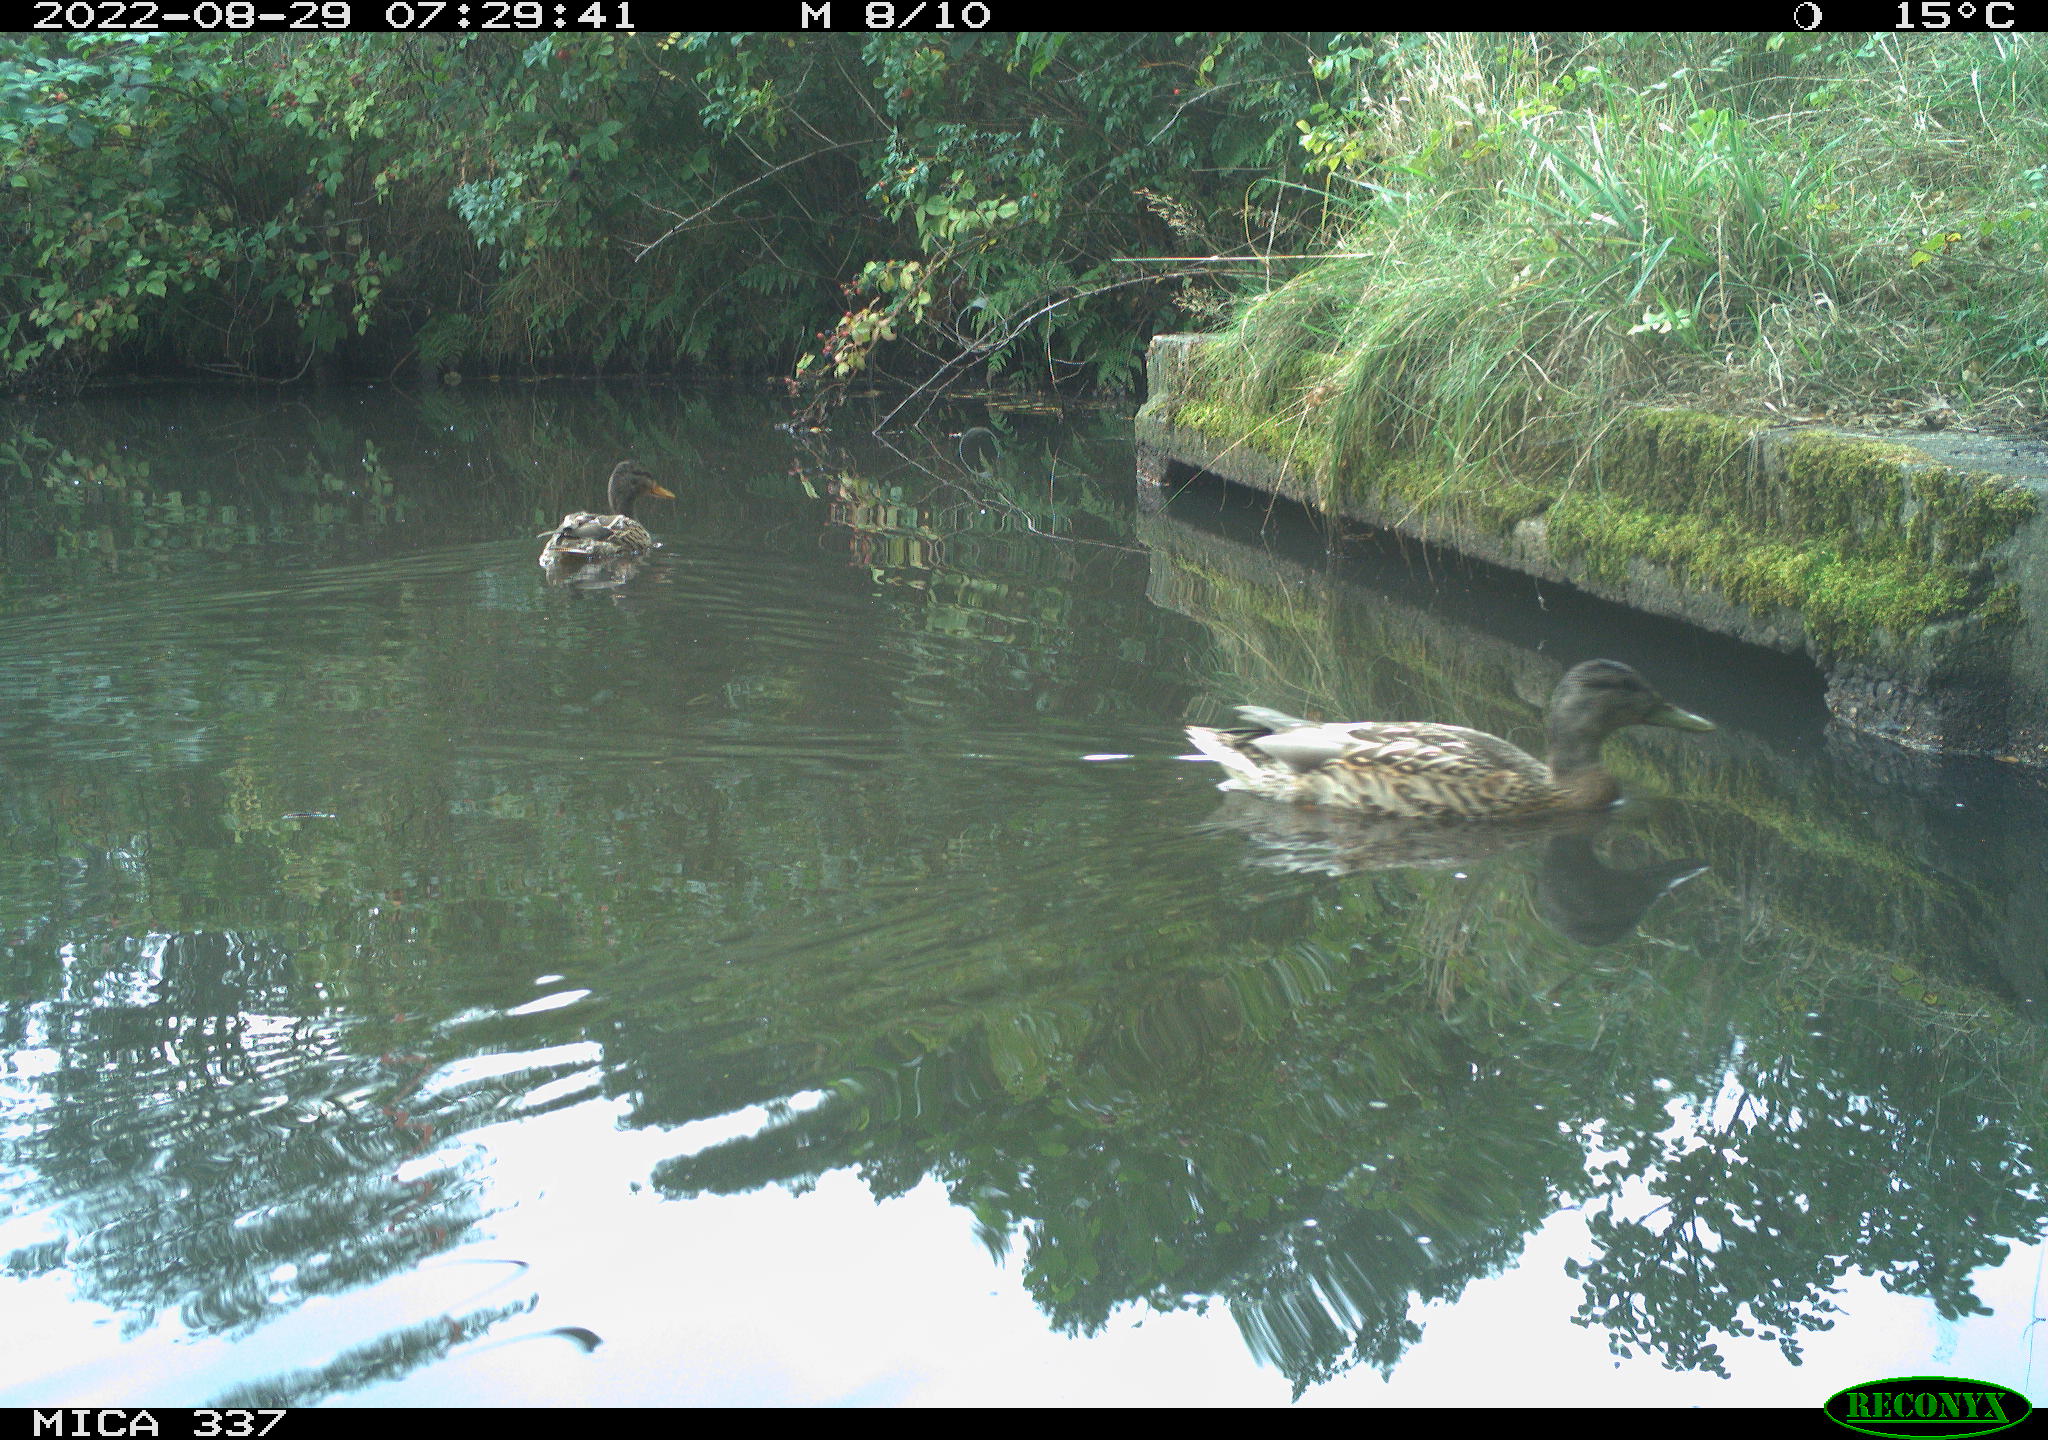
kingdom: Animalia
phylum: Chordata
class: Aves
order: Anseriformes
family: Anatidae
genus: Anas
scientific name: Anas platyrhynchos
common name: Mallard
